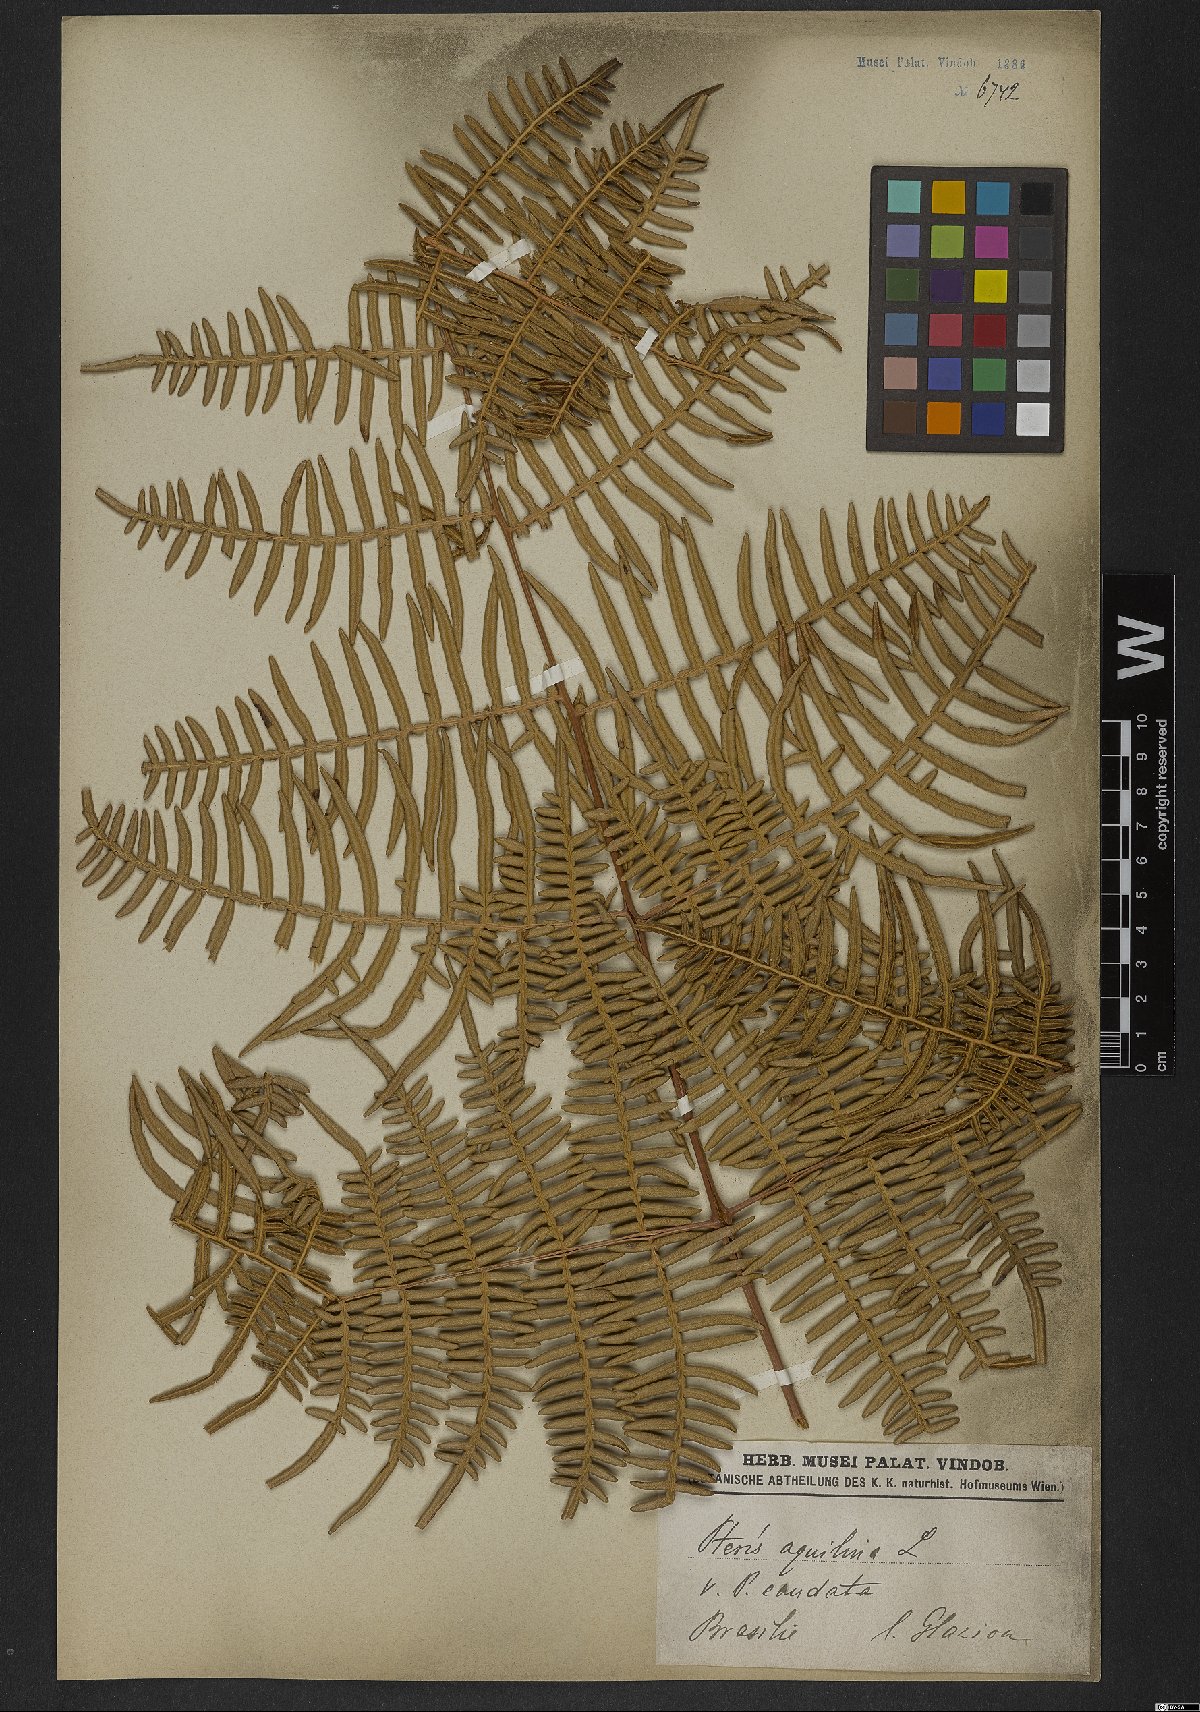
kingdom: Plantae
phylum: Tracheophyta
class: Polypodiopsida
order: Polypodiales
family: Dennstaedtiaceae
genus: Pteridium
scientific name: Pteridium caudatum
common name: Southern bracken fern
